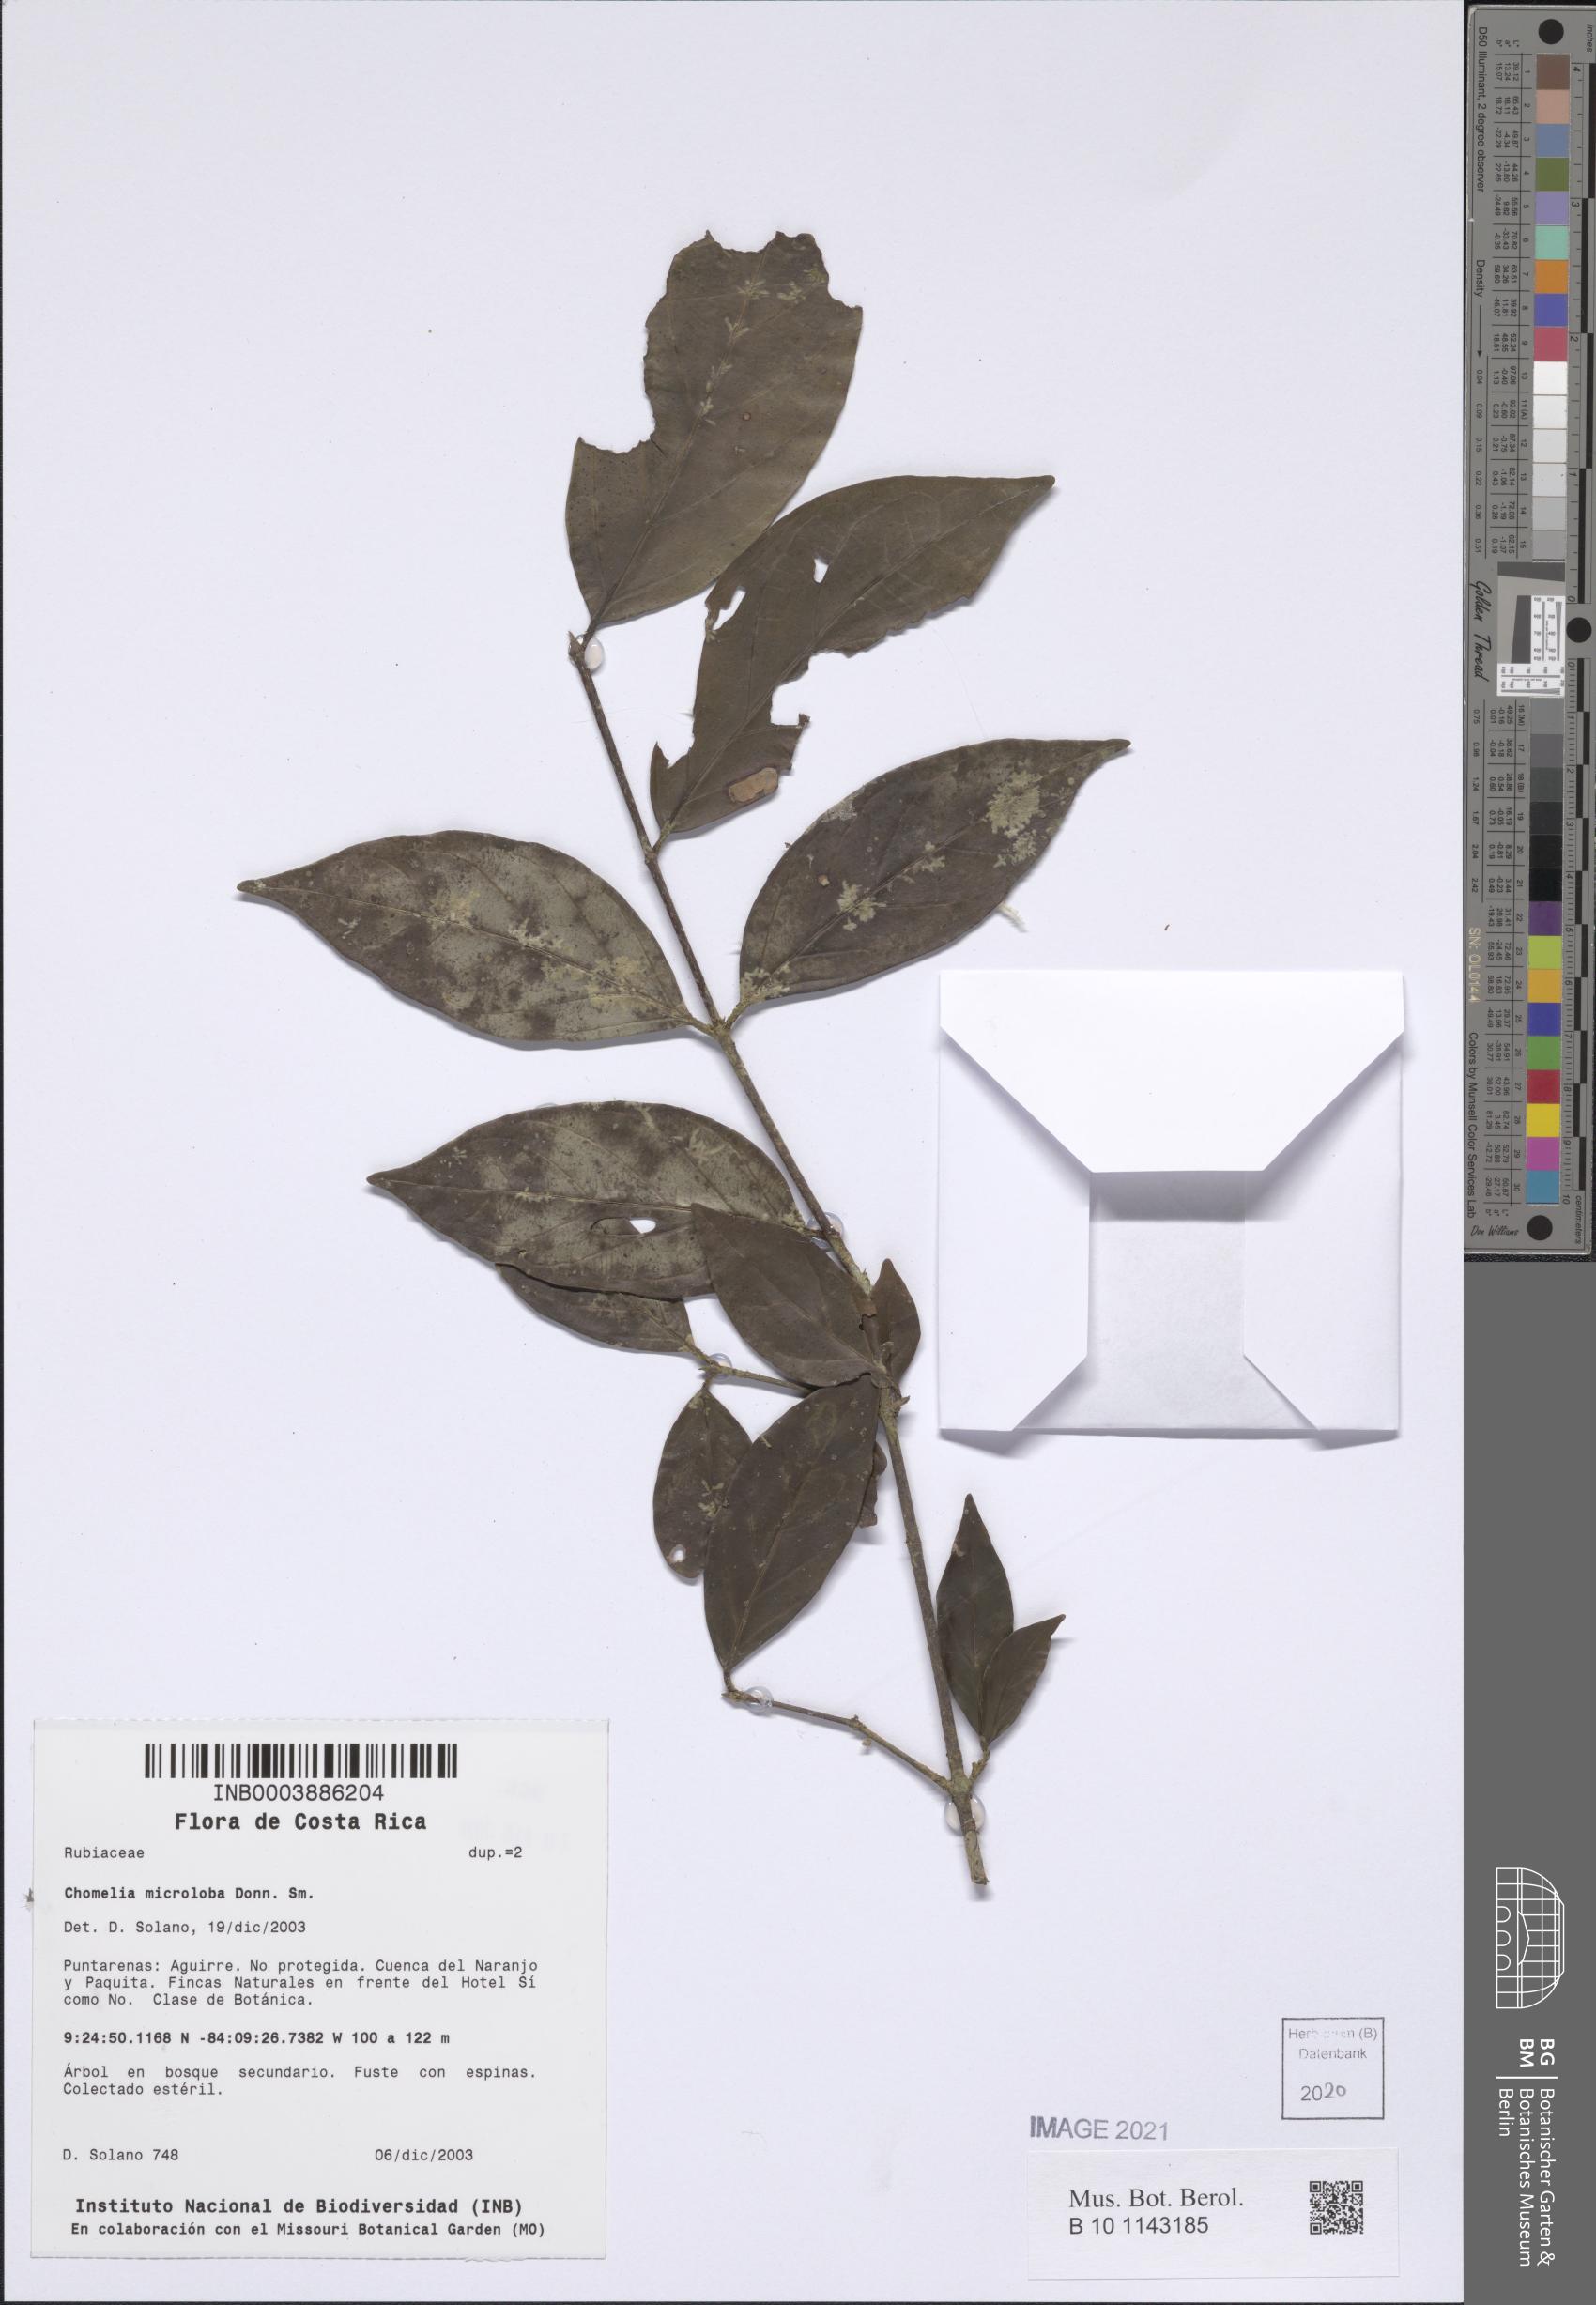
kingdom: Plantae
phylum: Tracheophyta
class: Magnoliopsida
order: Gentianales
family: Rubiaceae
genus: Chomelia
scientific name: Chomelia microloba
